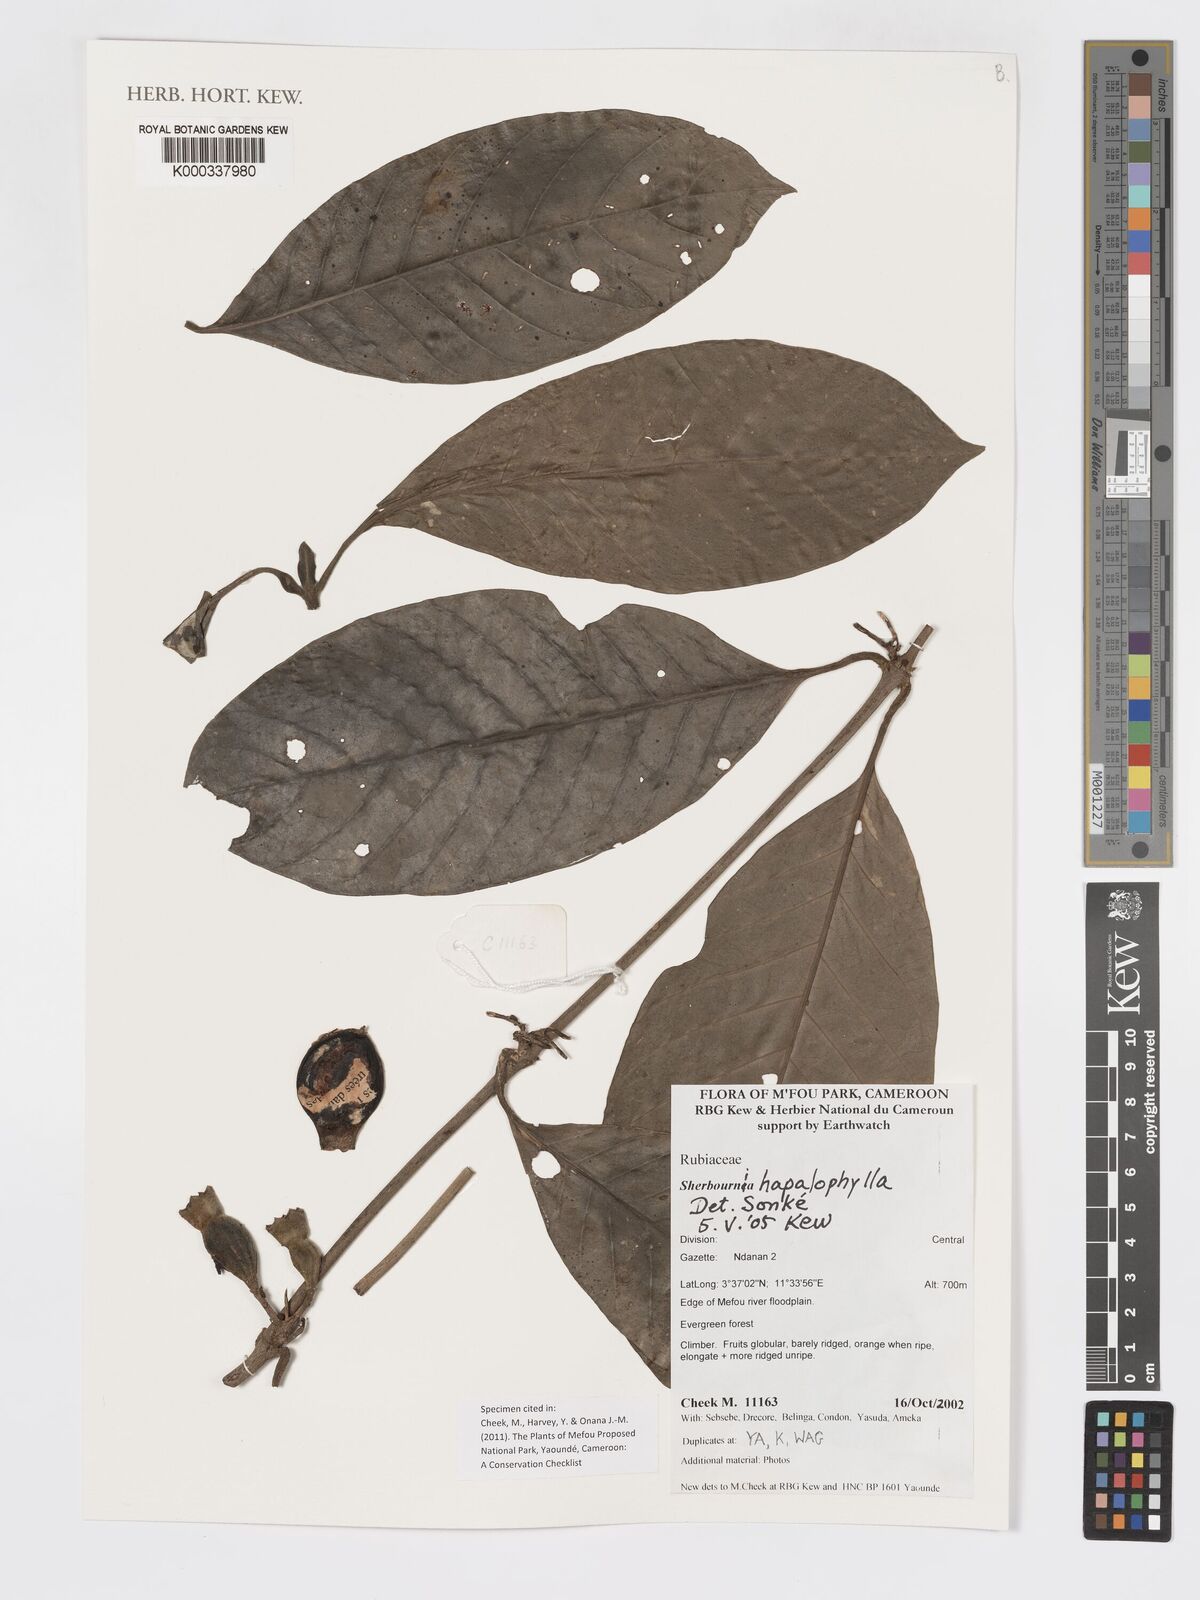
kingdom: Plantae
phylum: Tracheophyta
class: Magnoliopsida
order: Gentianales
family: Rubiaceae
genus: Sherbournia
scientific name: Sherbournia hapalophylla
